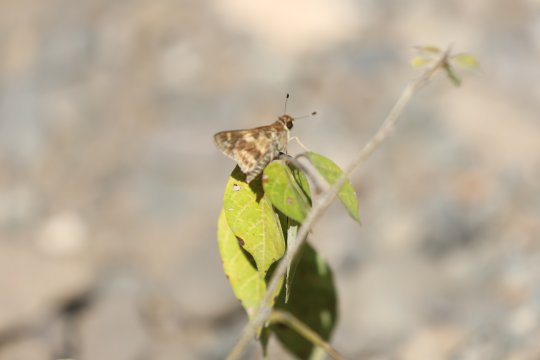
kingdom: Animalia
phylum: Arthropoda
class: Insecta
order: Lepidoptera
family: Hesperiidae
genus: Virga
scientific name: Virga clenchi
